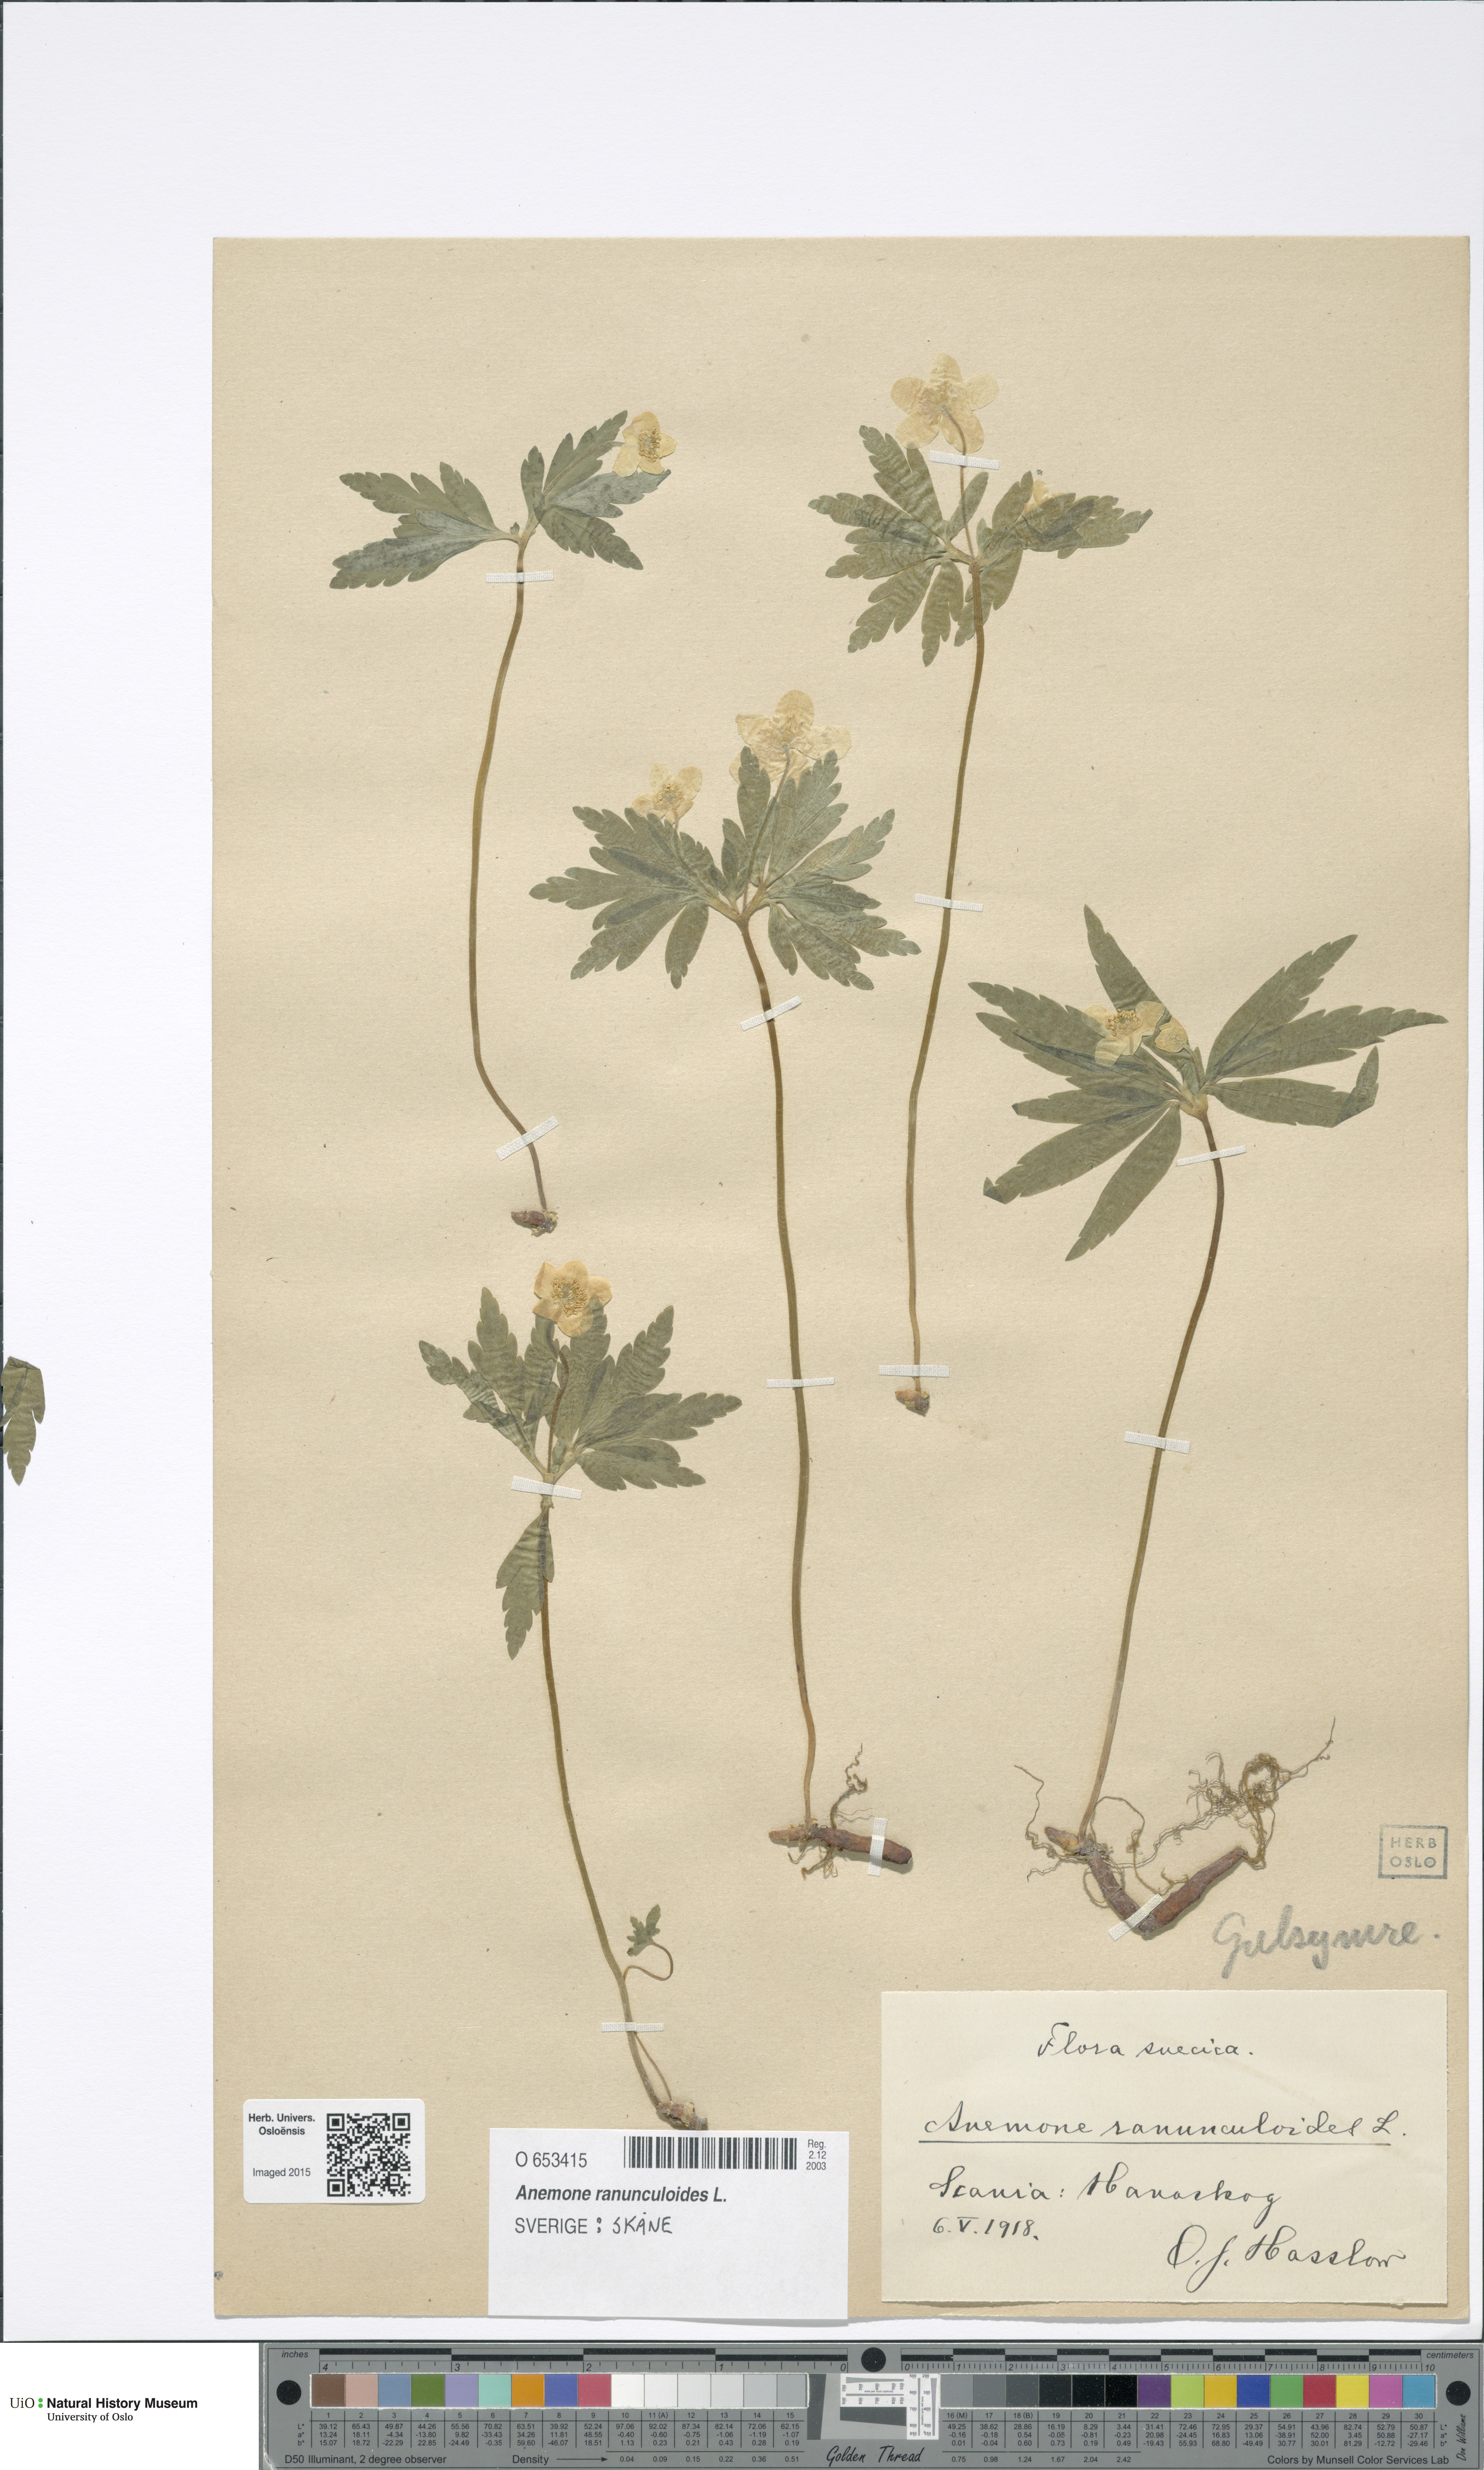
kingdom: Plantae
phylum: Tracheophyta
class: Magnoliopsida
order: Ranunculales
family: Ranunculaceae
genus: Anemone
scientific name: Anemone ranunculoides
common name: Yellow anemone
